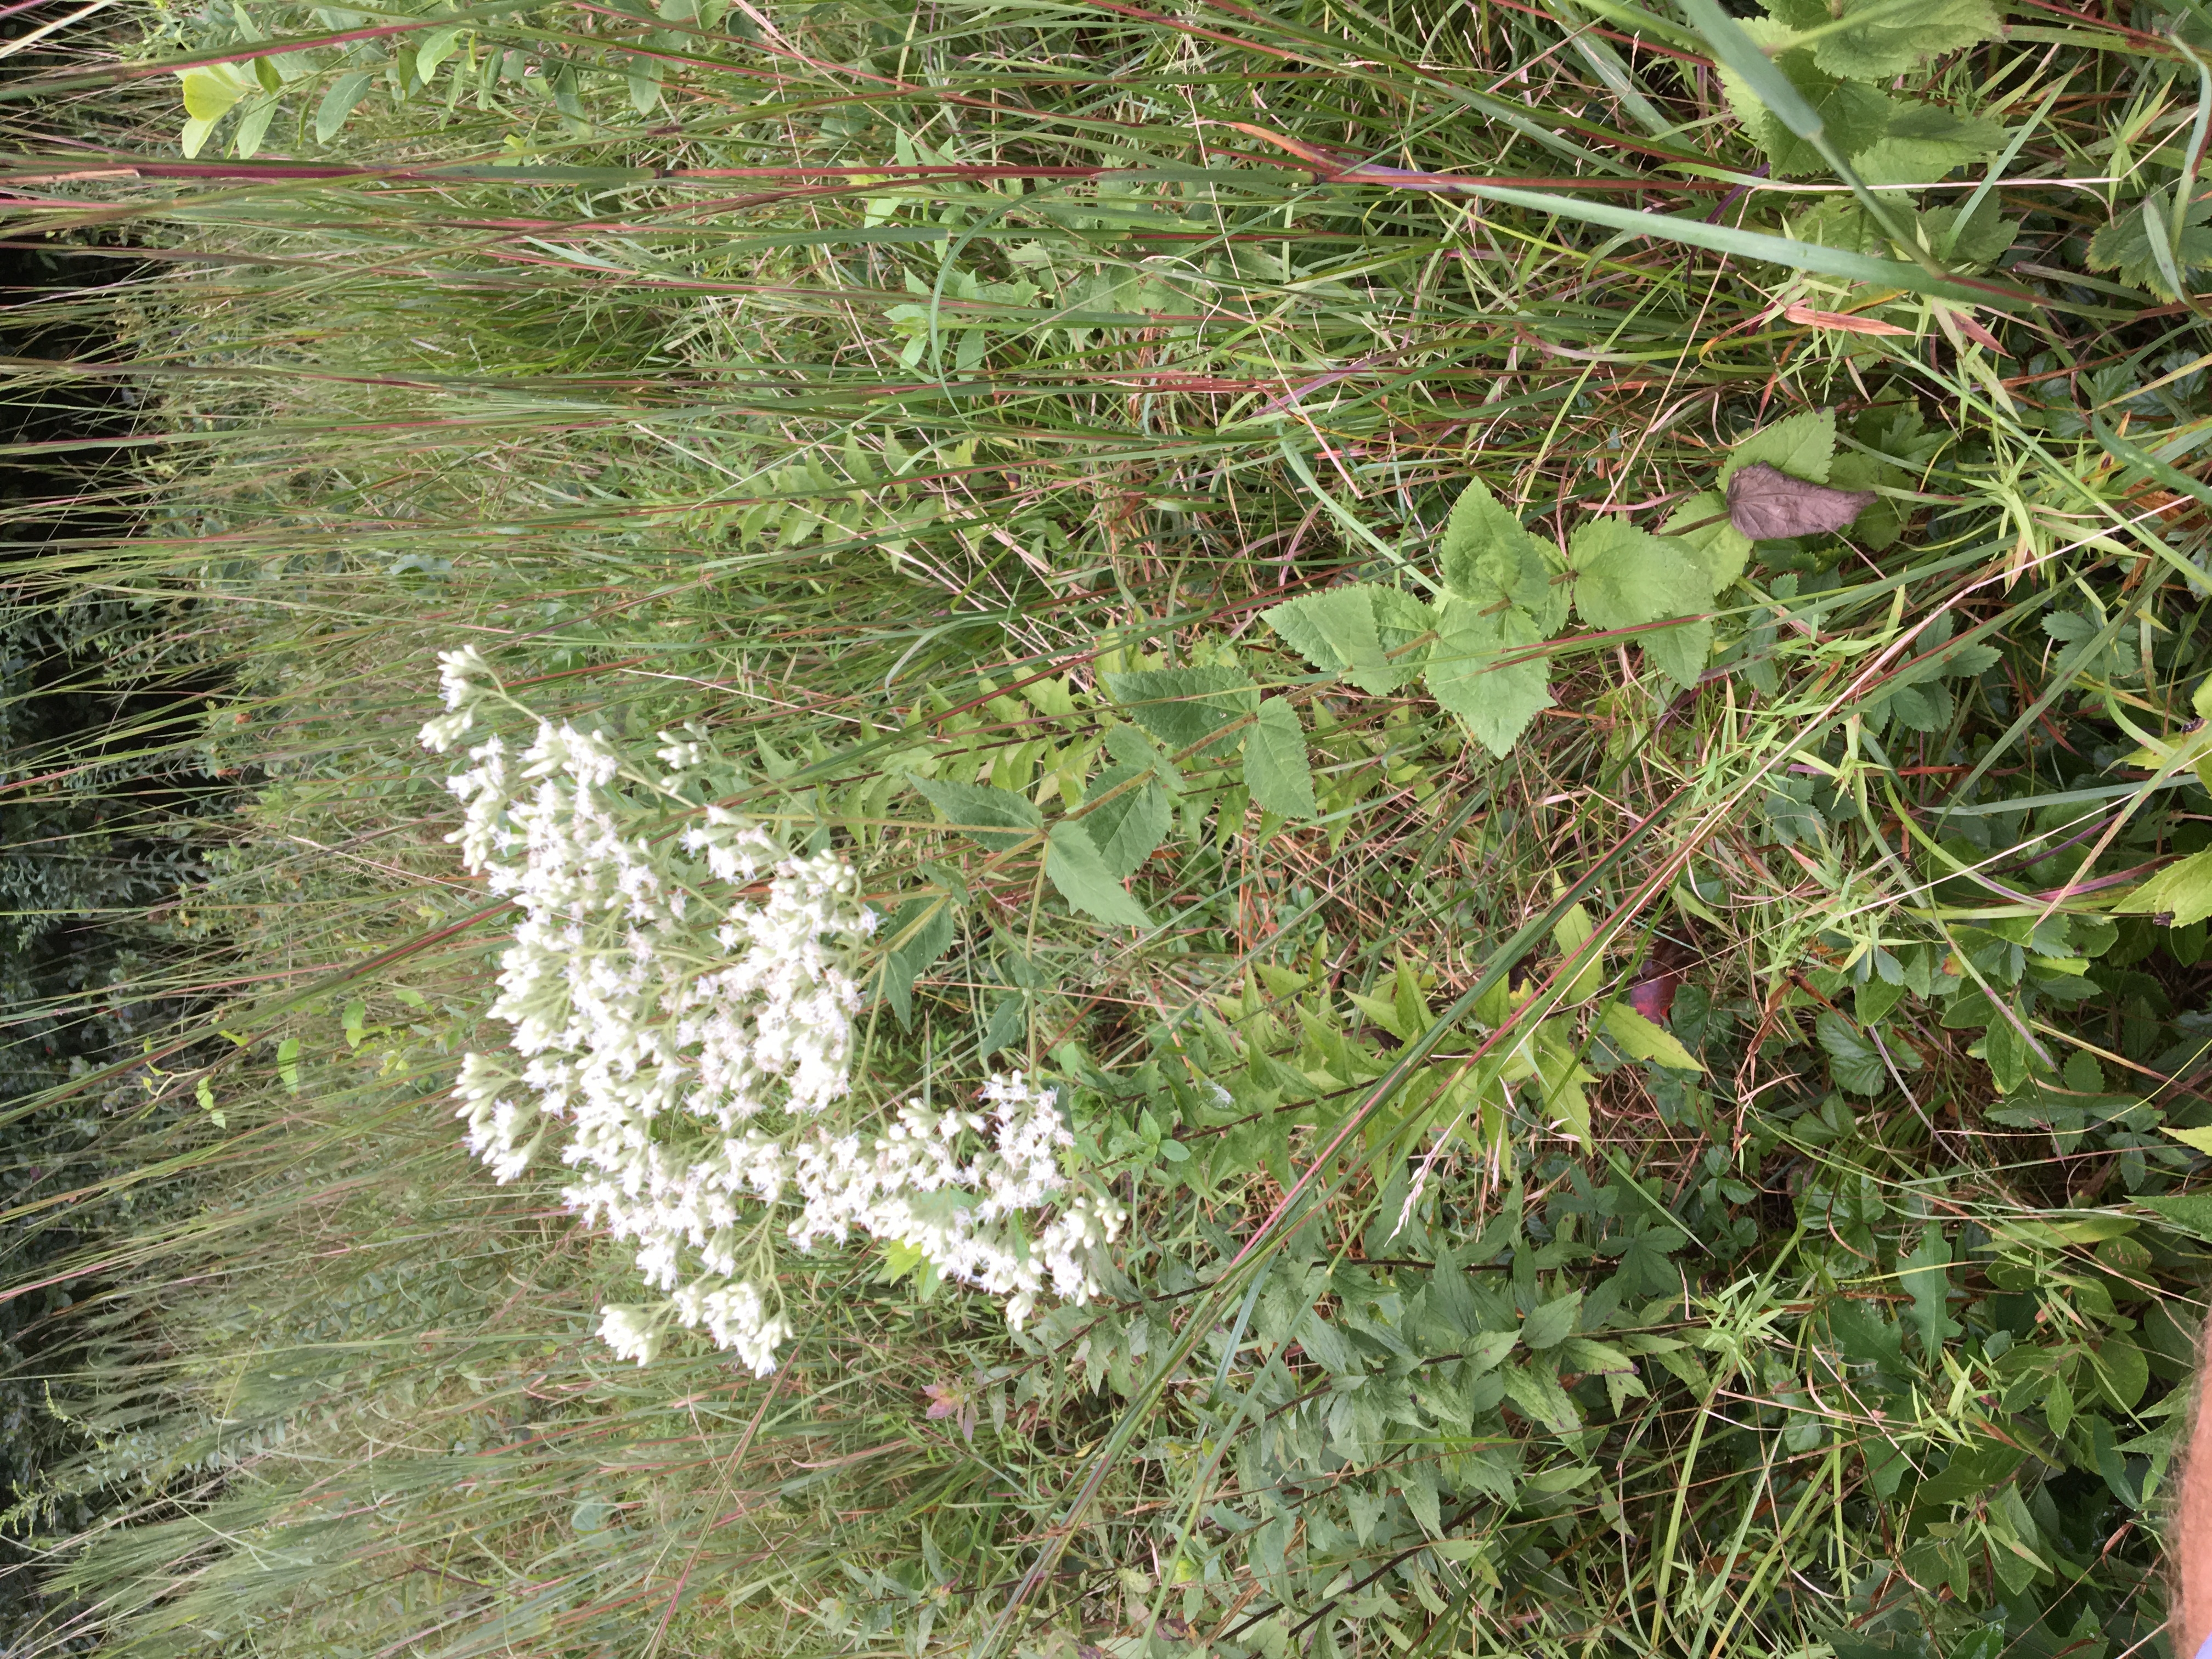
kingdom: Plantae
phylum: Tracheophyta
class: Magnoliopsida
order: Asterales
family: Asteraceae
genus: Eupatorium
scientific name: Eupatorium rotundifolium
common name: roundleaf thoroughwort
